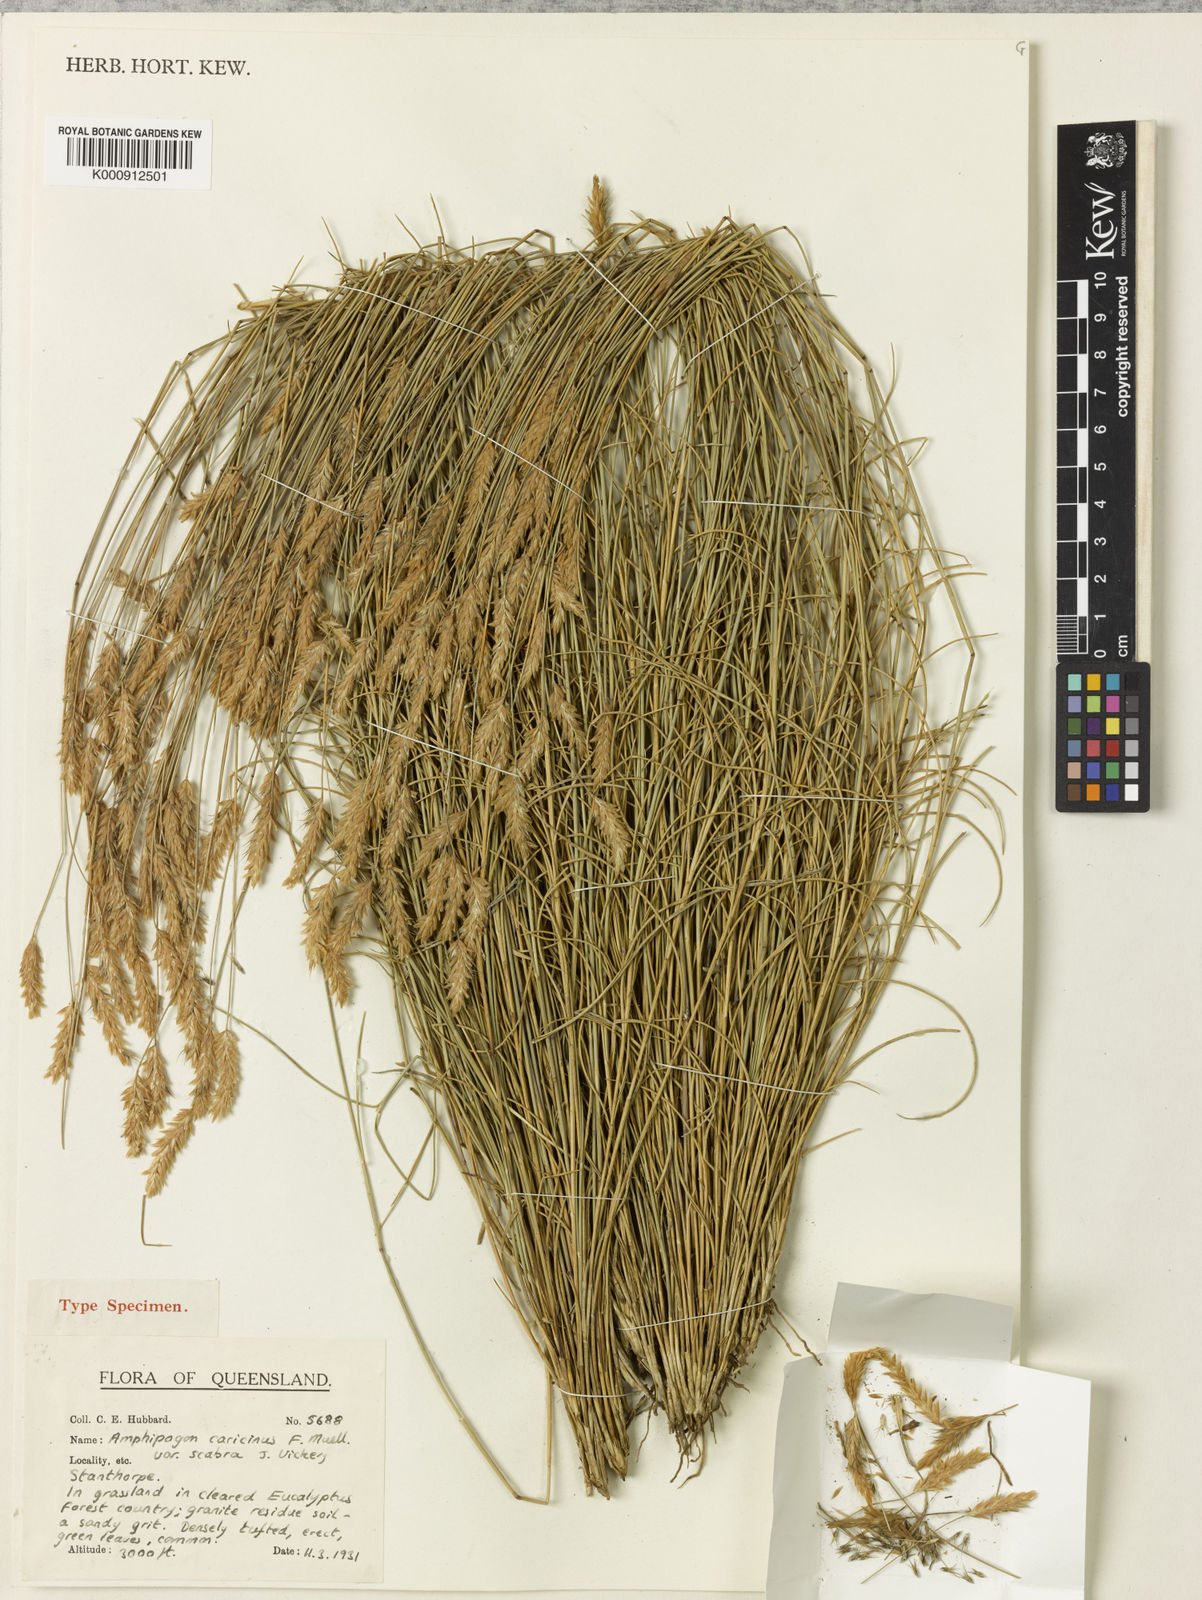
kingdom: Plantae
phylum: Tracheophyta
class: Liliopsida
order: Poales
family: Poaceae
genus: Amphipogon
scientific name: Amphipogon sericeus
